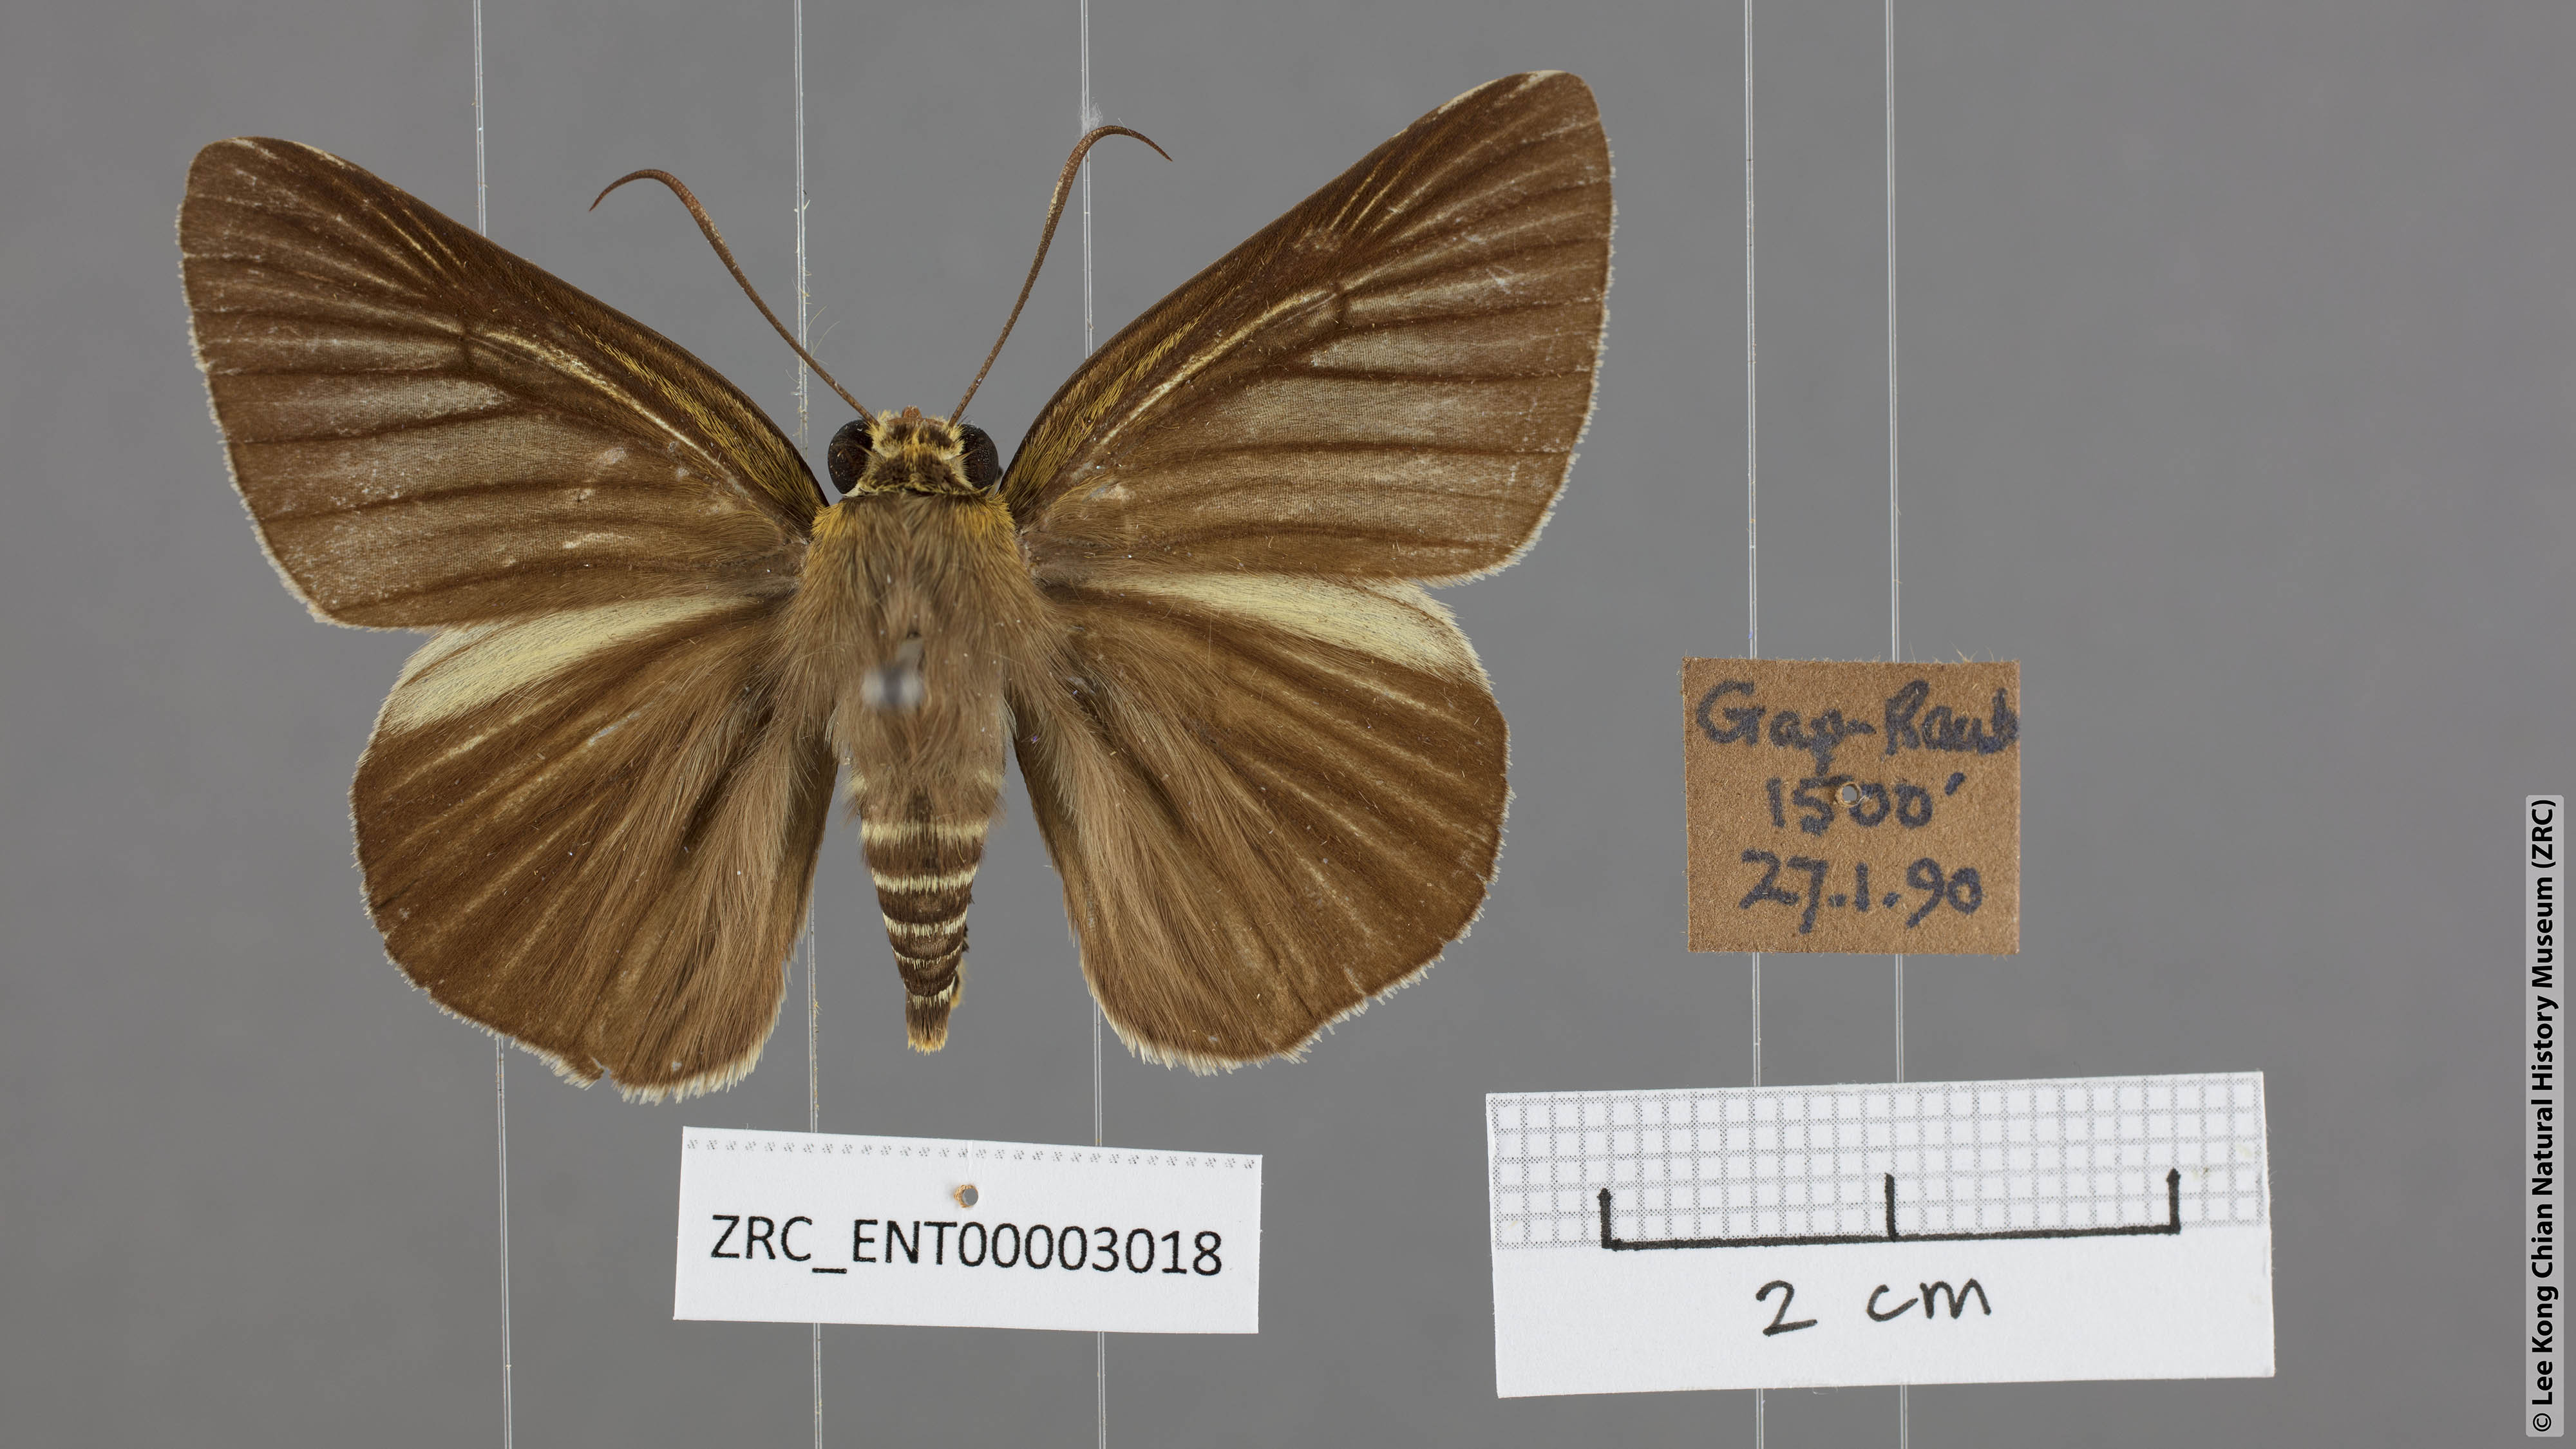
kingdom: Animalia
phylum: Arthropoda
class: Insecta
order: Lepidoptera
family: Hesperiidae
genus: Bibasis
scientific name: Bibasis gomata
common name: Pale green awlet
